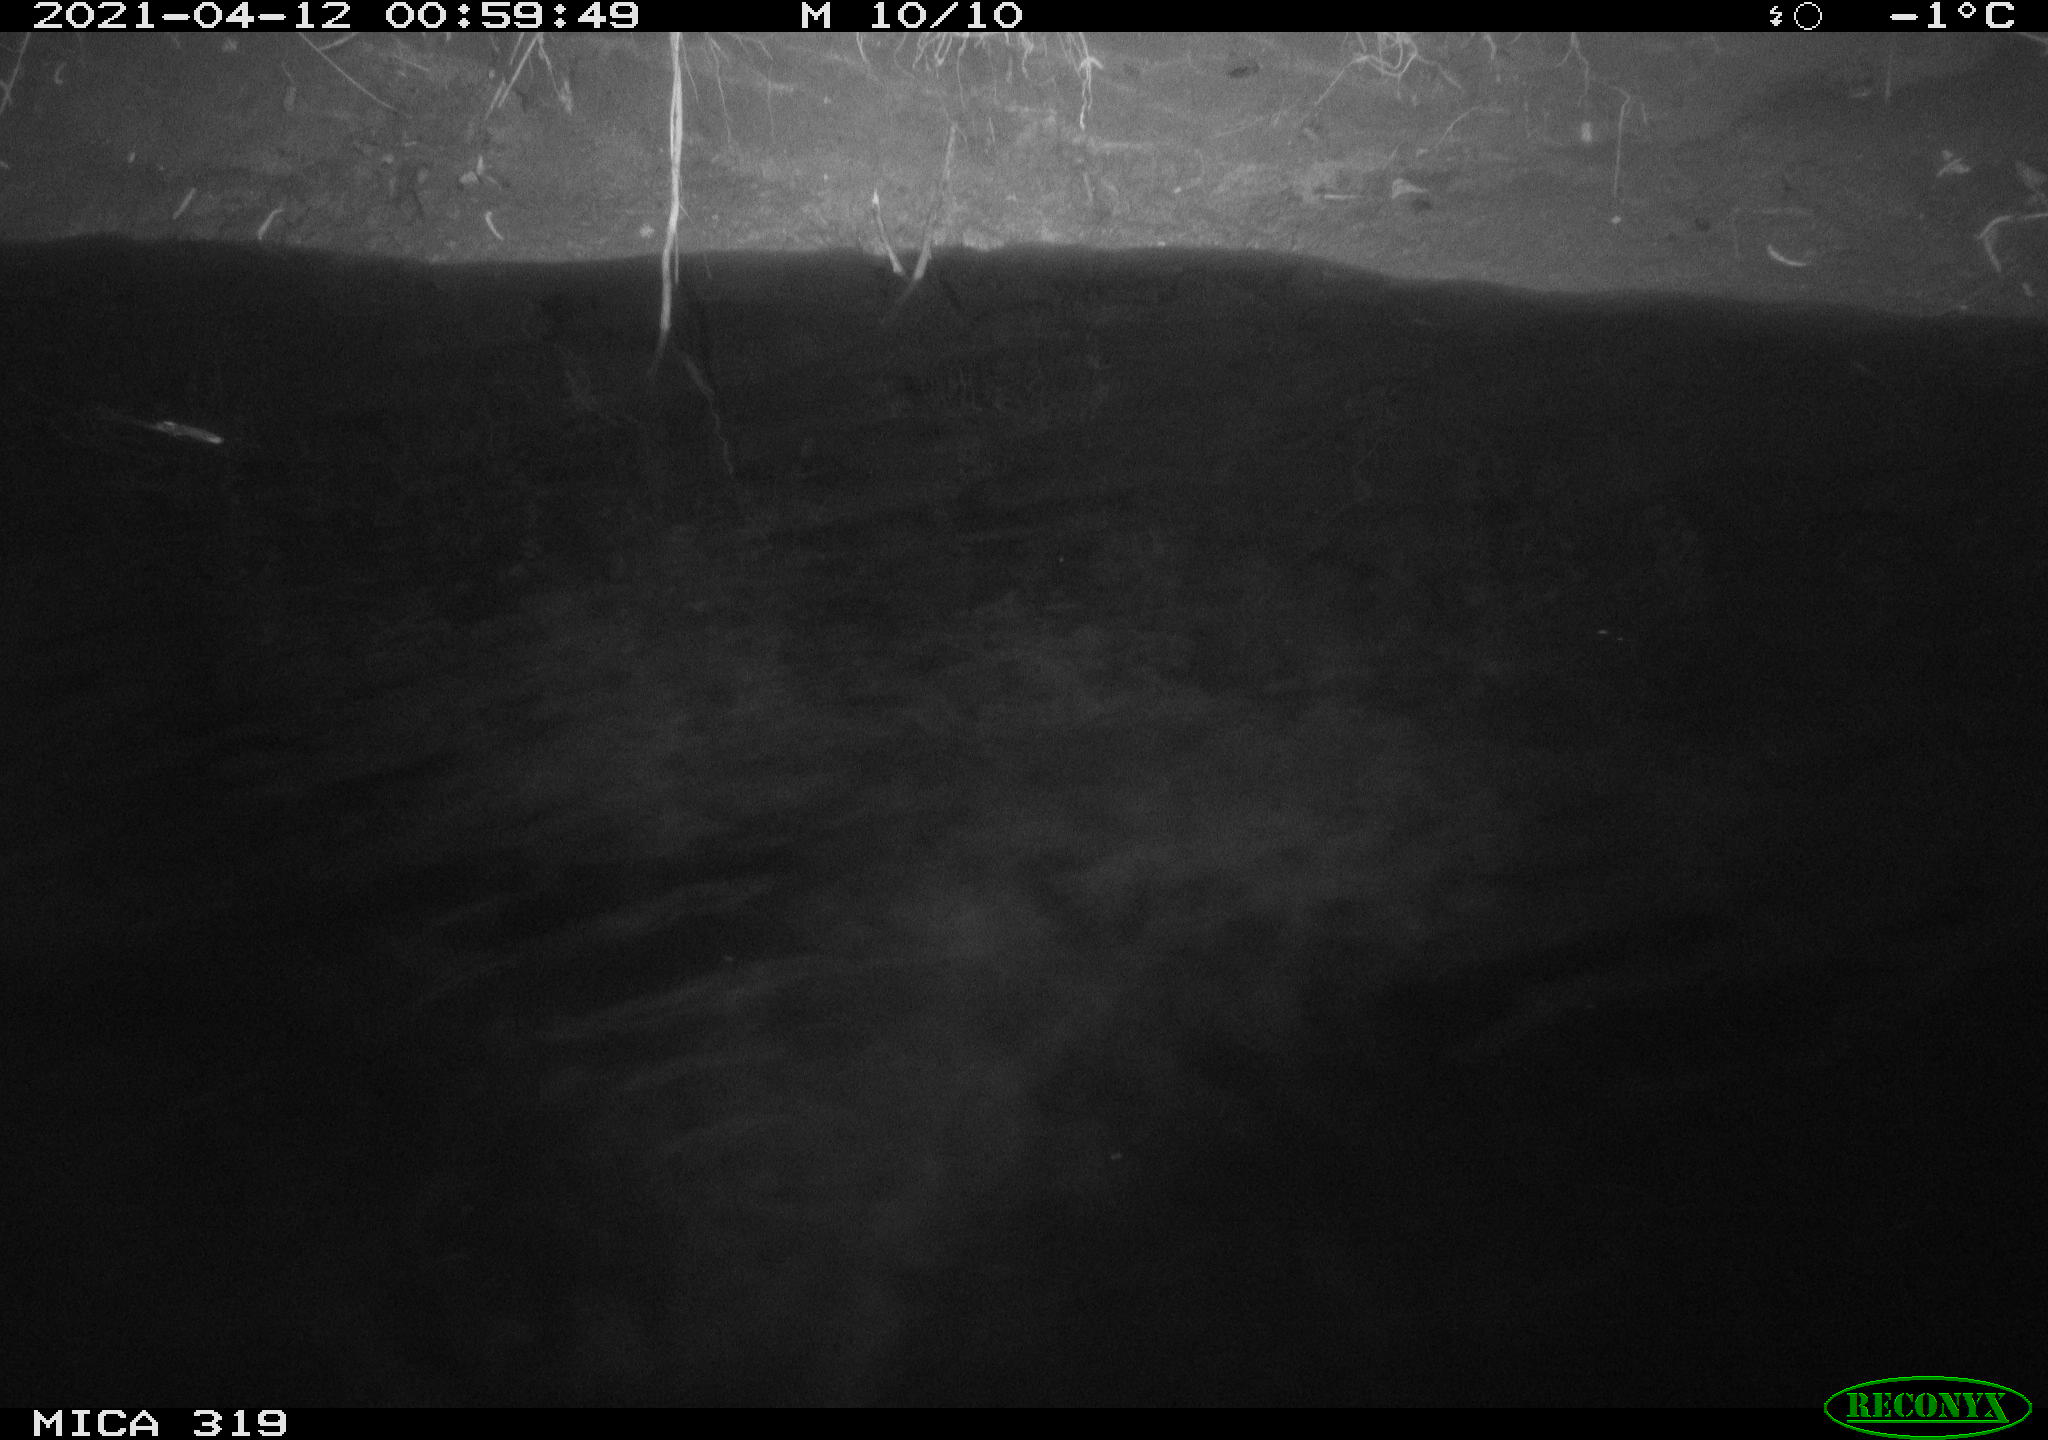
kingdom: Animalia
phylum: Chordata
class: Aves
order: Anseriformes
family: Anatidae
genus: Anas
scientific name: Anas platyrhynchos
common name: Mallard
